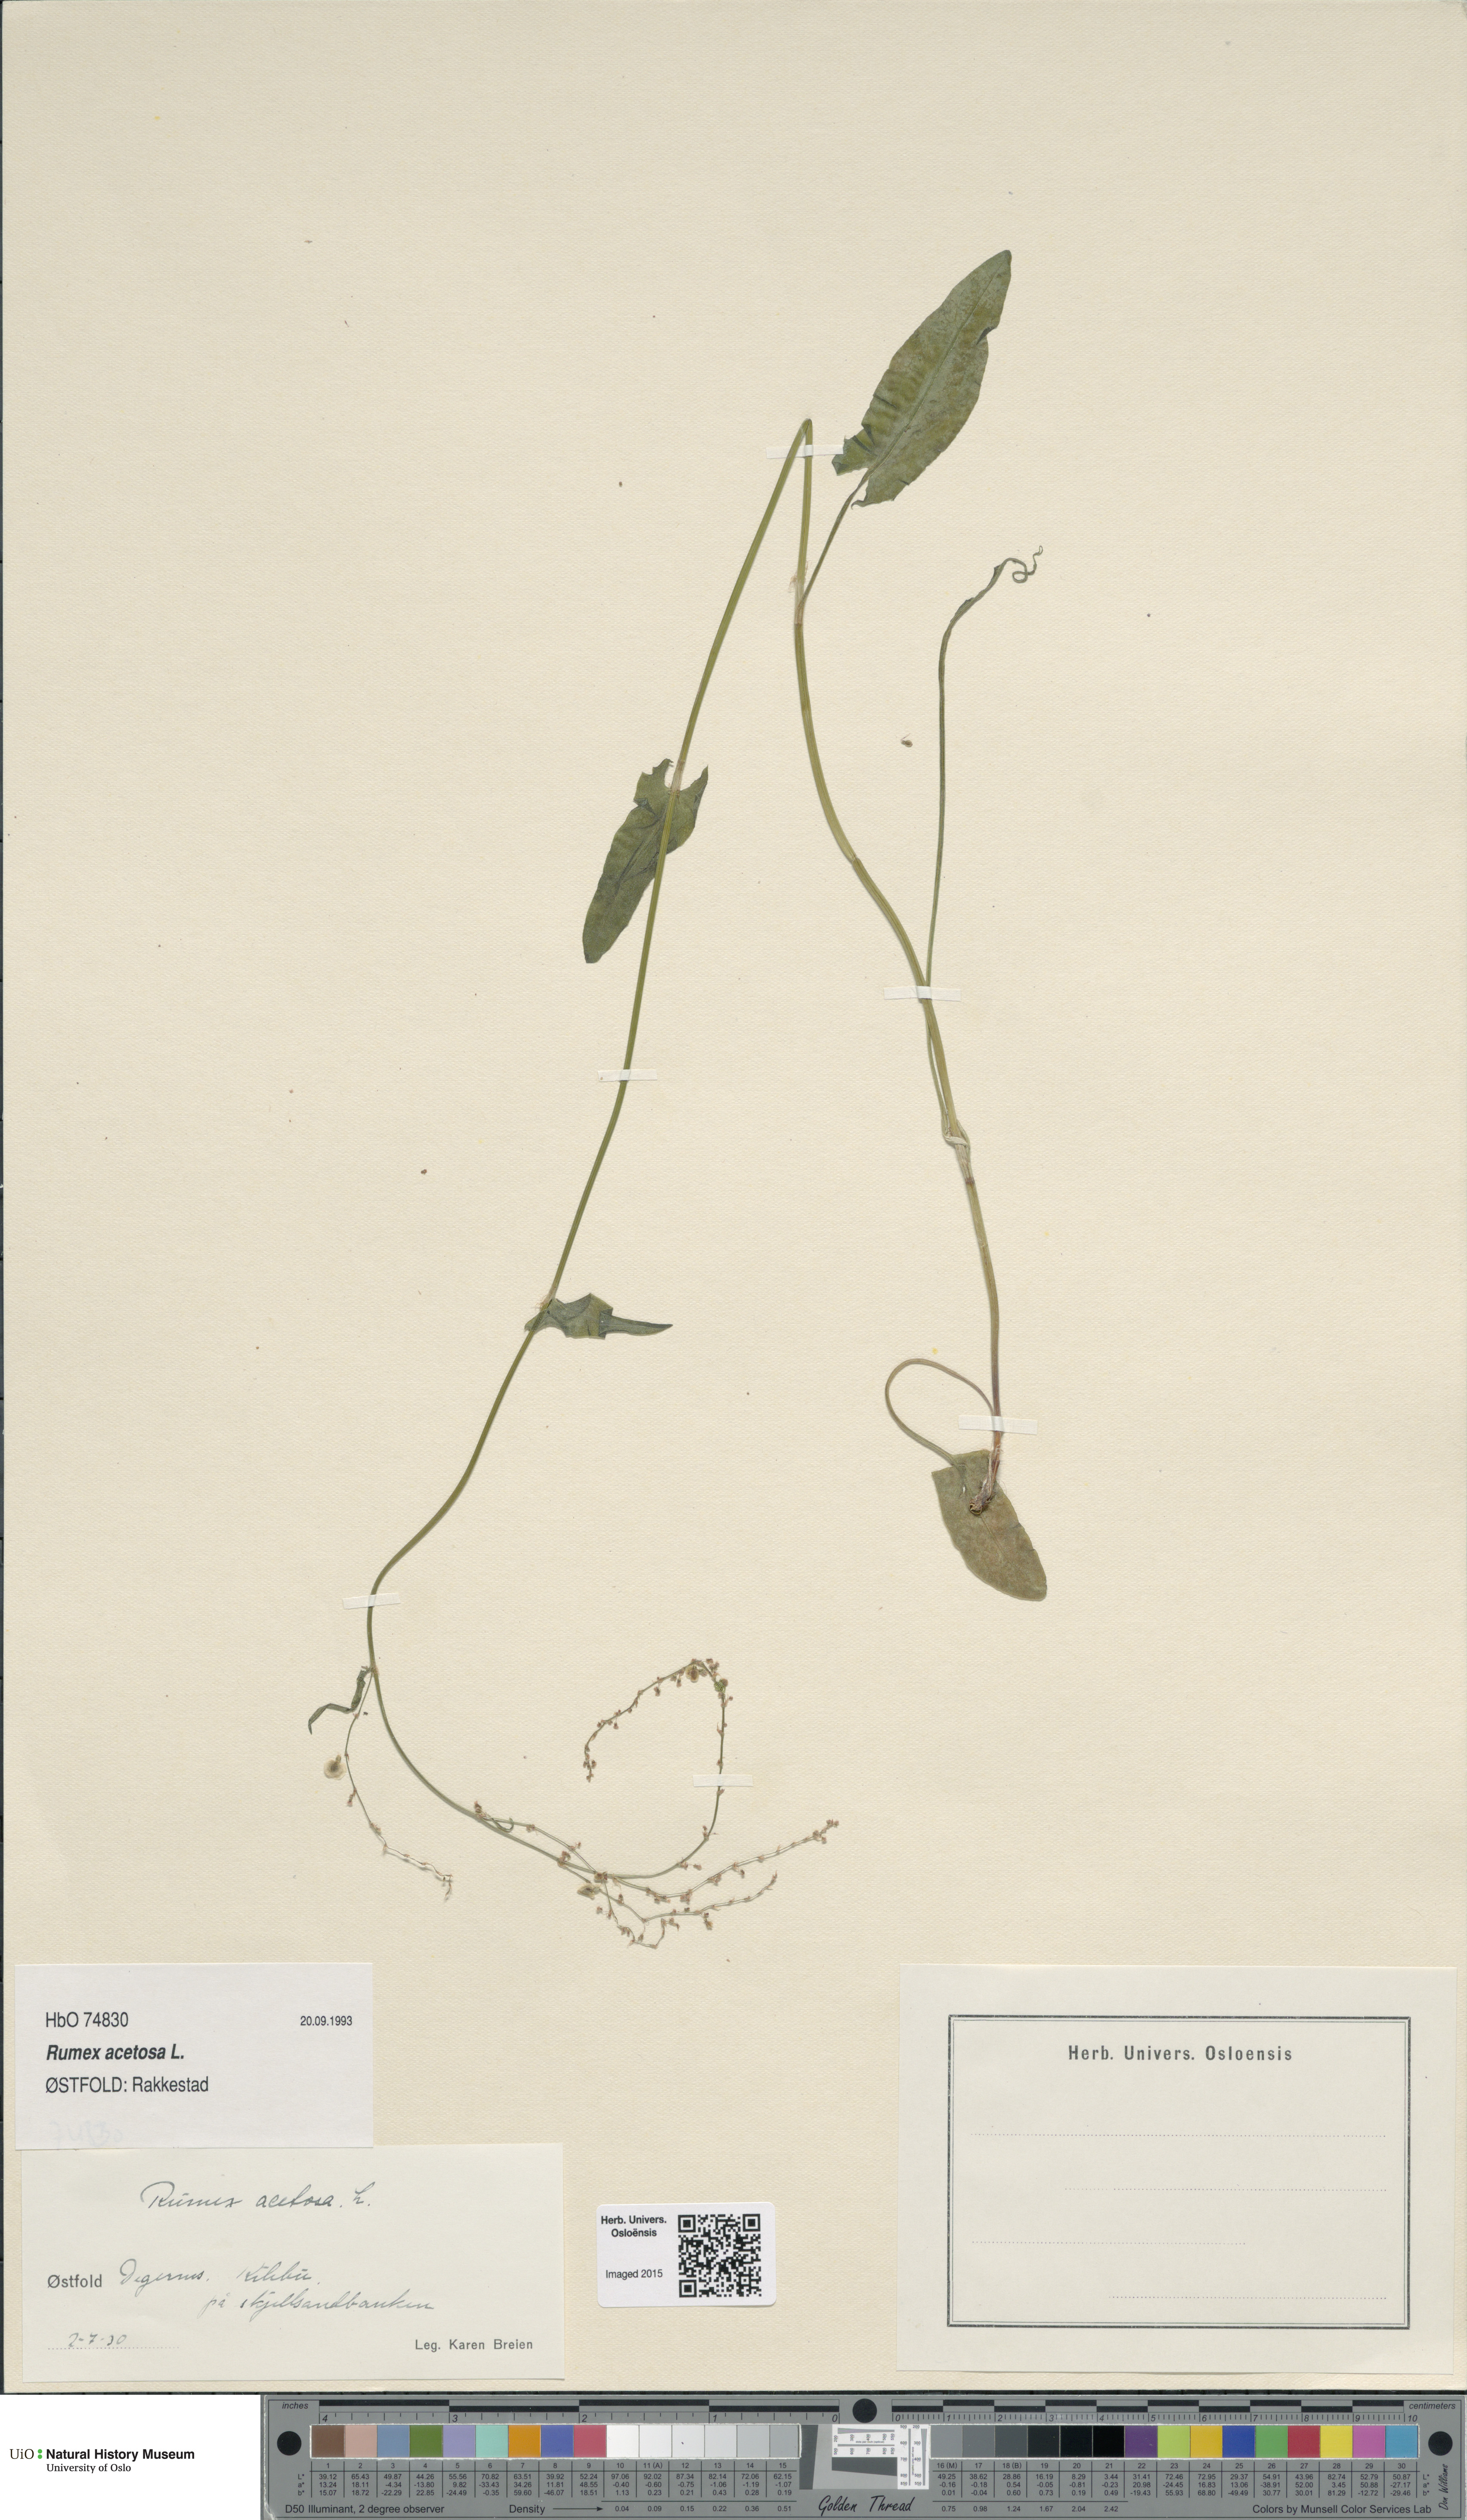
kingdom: Plantae
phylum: Tracheophyta
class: Magnoliopsida
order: Caryophyllales
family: Polygonaceae
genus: Rumex
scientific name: Rumex acetosa
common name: Garden sorrel
